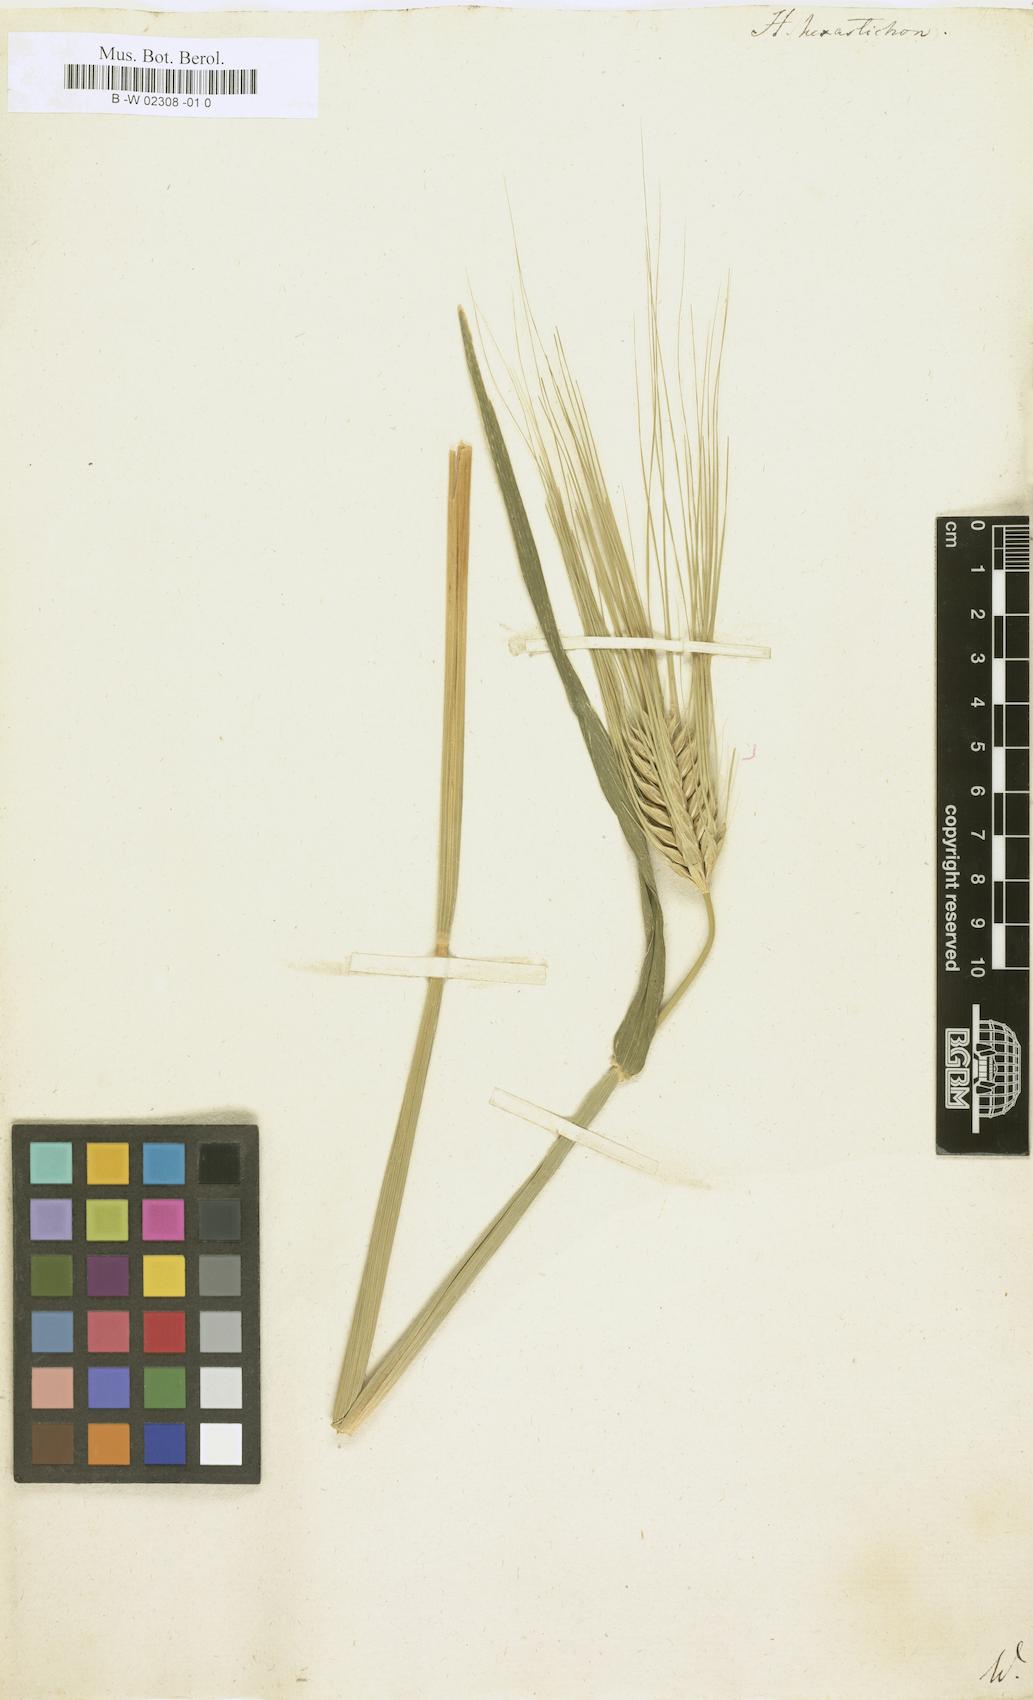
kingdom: Plantae
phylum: Tracheophyta
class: Liliopsida
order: Poales
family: Poaceae
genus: Hordeum
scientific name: Hordeum vulgare
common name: Common barley
